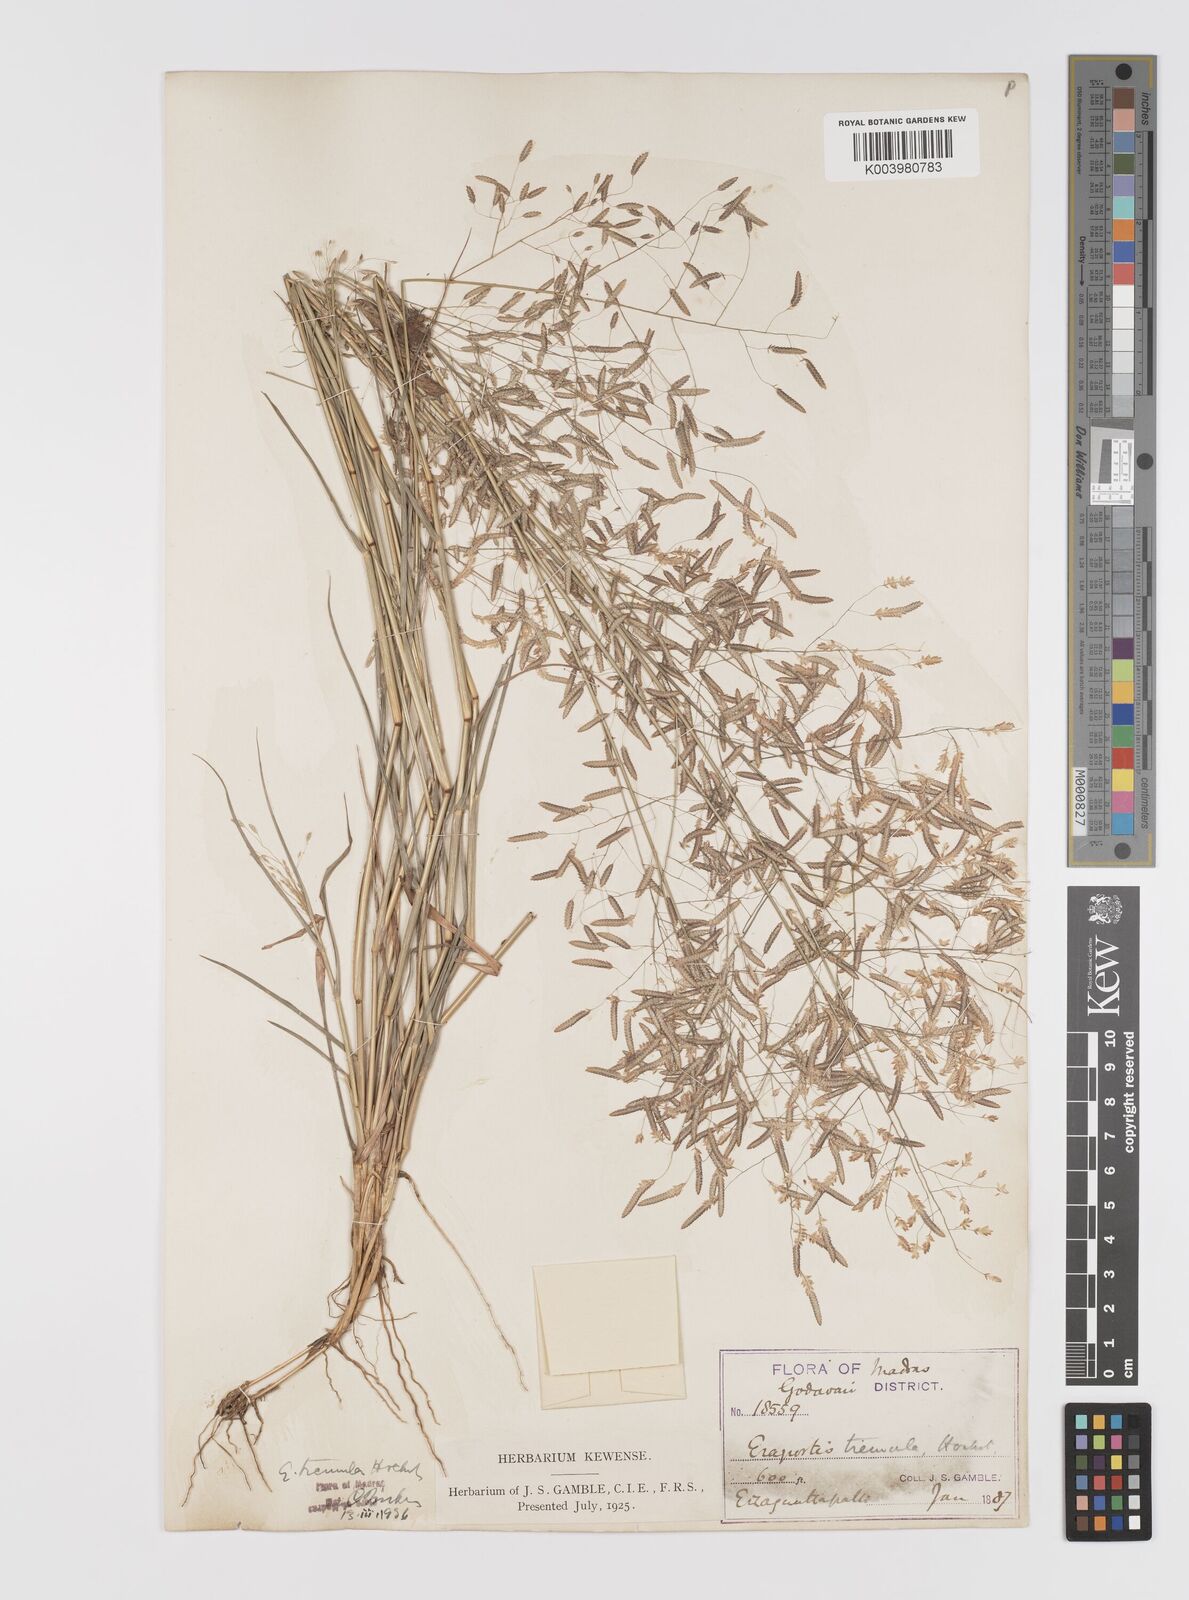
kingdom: Plantae
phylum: Tracheophyta
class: Liliopsida
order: Poales
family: Poaceae
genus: Eragrostis
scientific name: Eragrostis tremula
